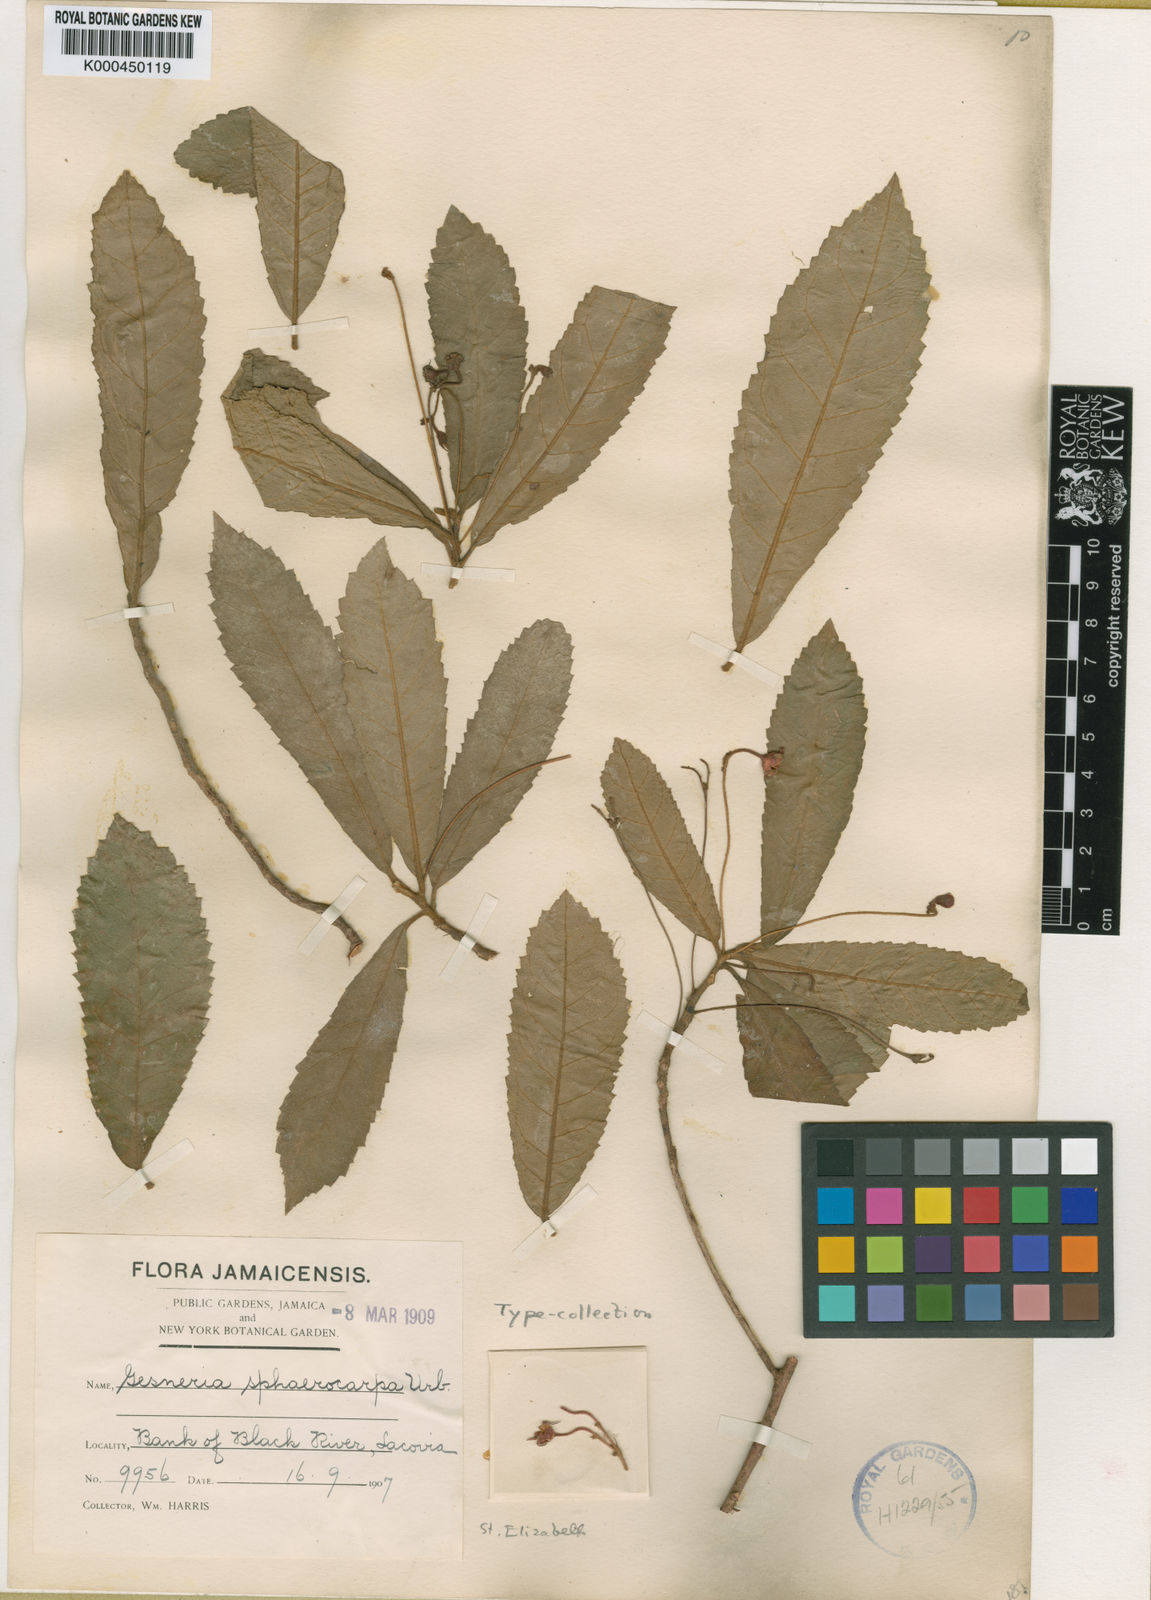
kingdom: Plantae
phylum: Tracheophyta
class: Magnoliopsida
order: Lamiales
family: Gesneriaceae
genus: Gesneria
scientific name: Gesneria scabra
